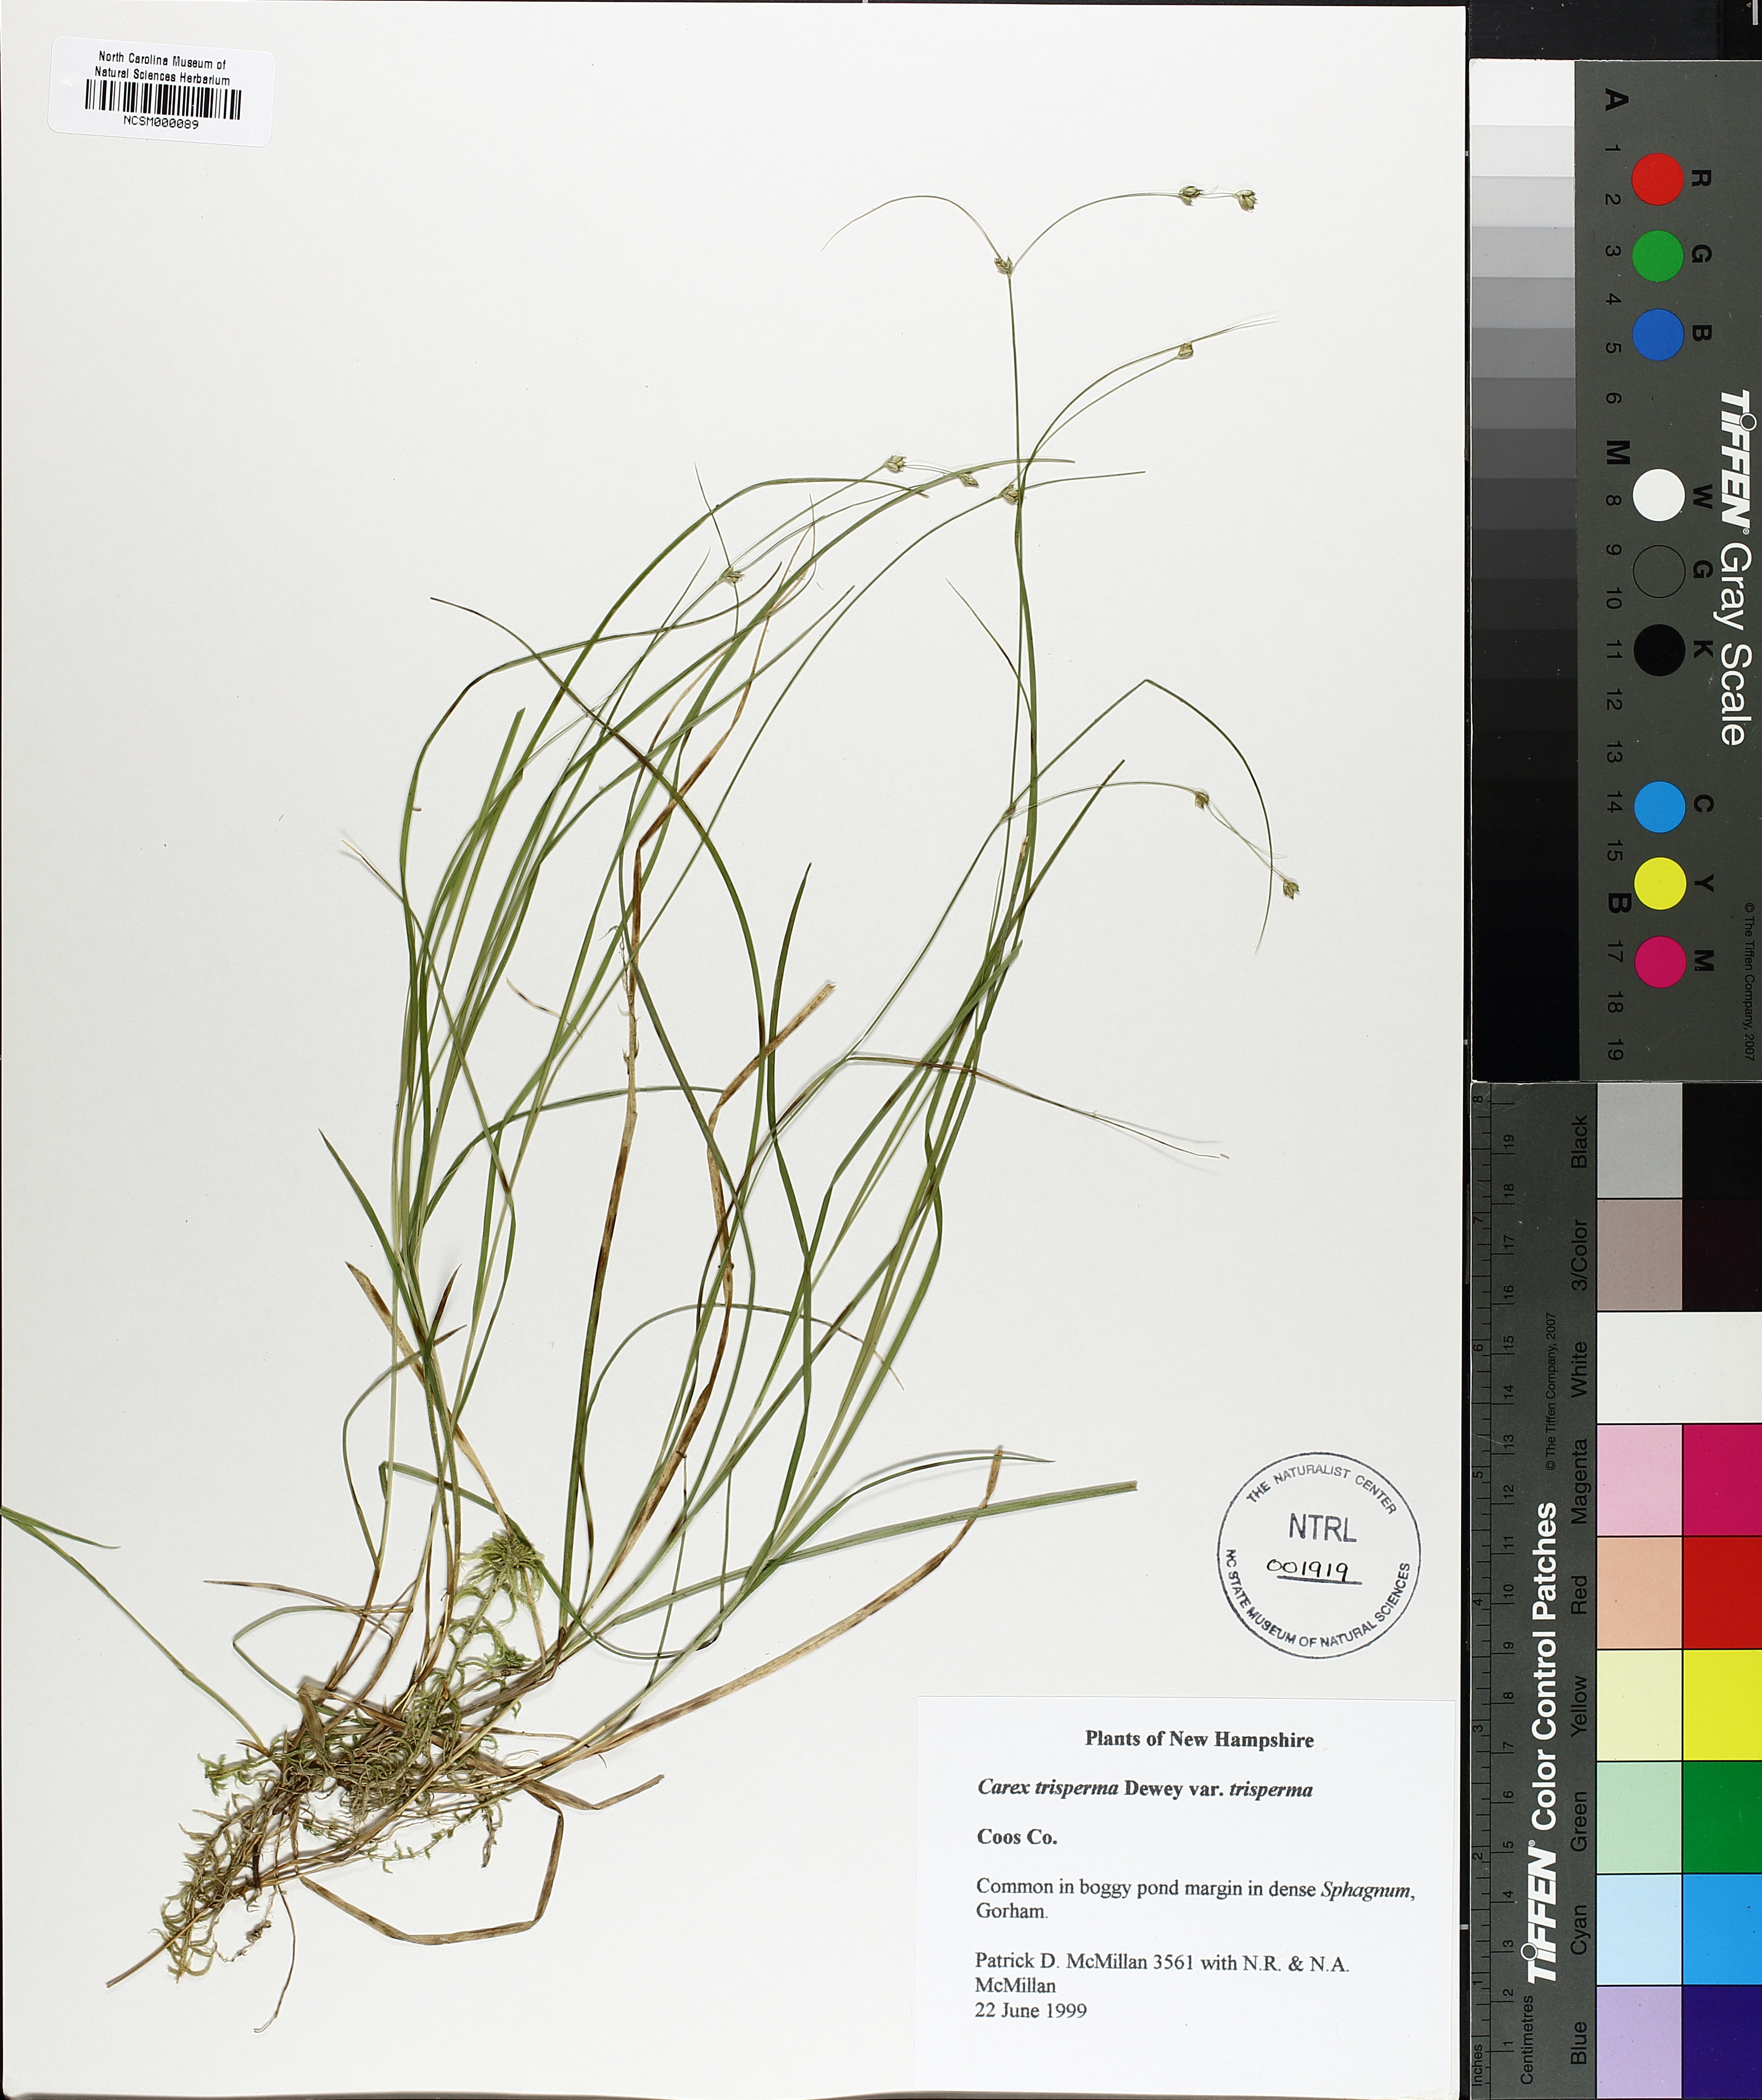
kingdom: Plantae
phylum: Tracheophyta
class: Liliopsida
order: Poales
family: Cyperaceae
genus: Carex
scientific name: Carex trisperma
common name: Three-seeded sedge
